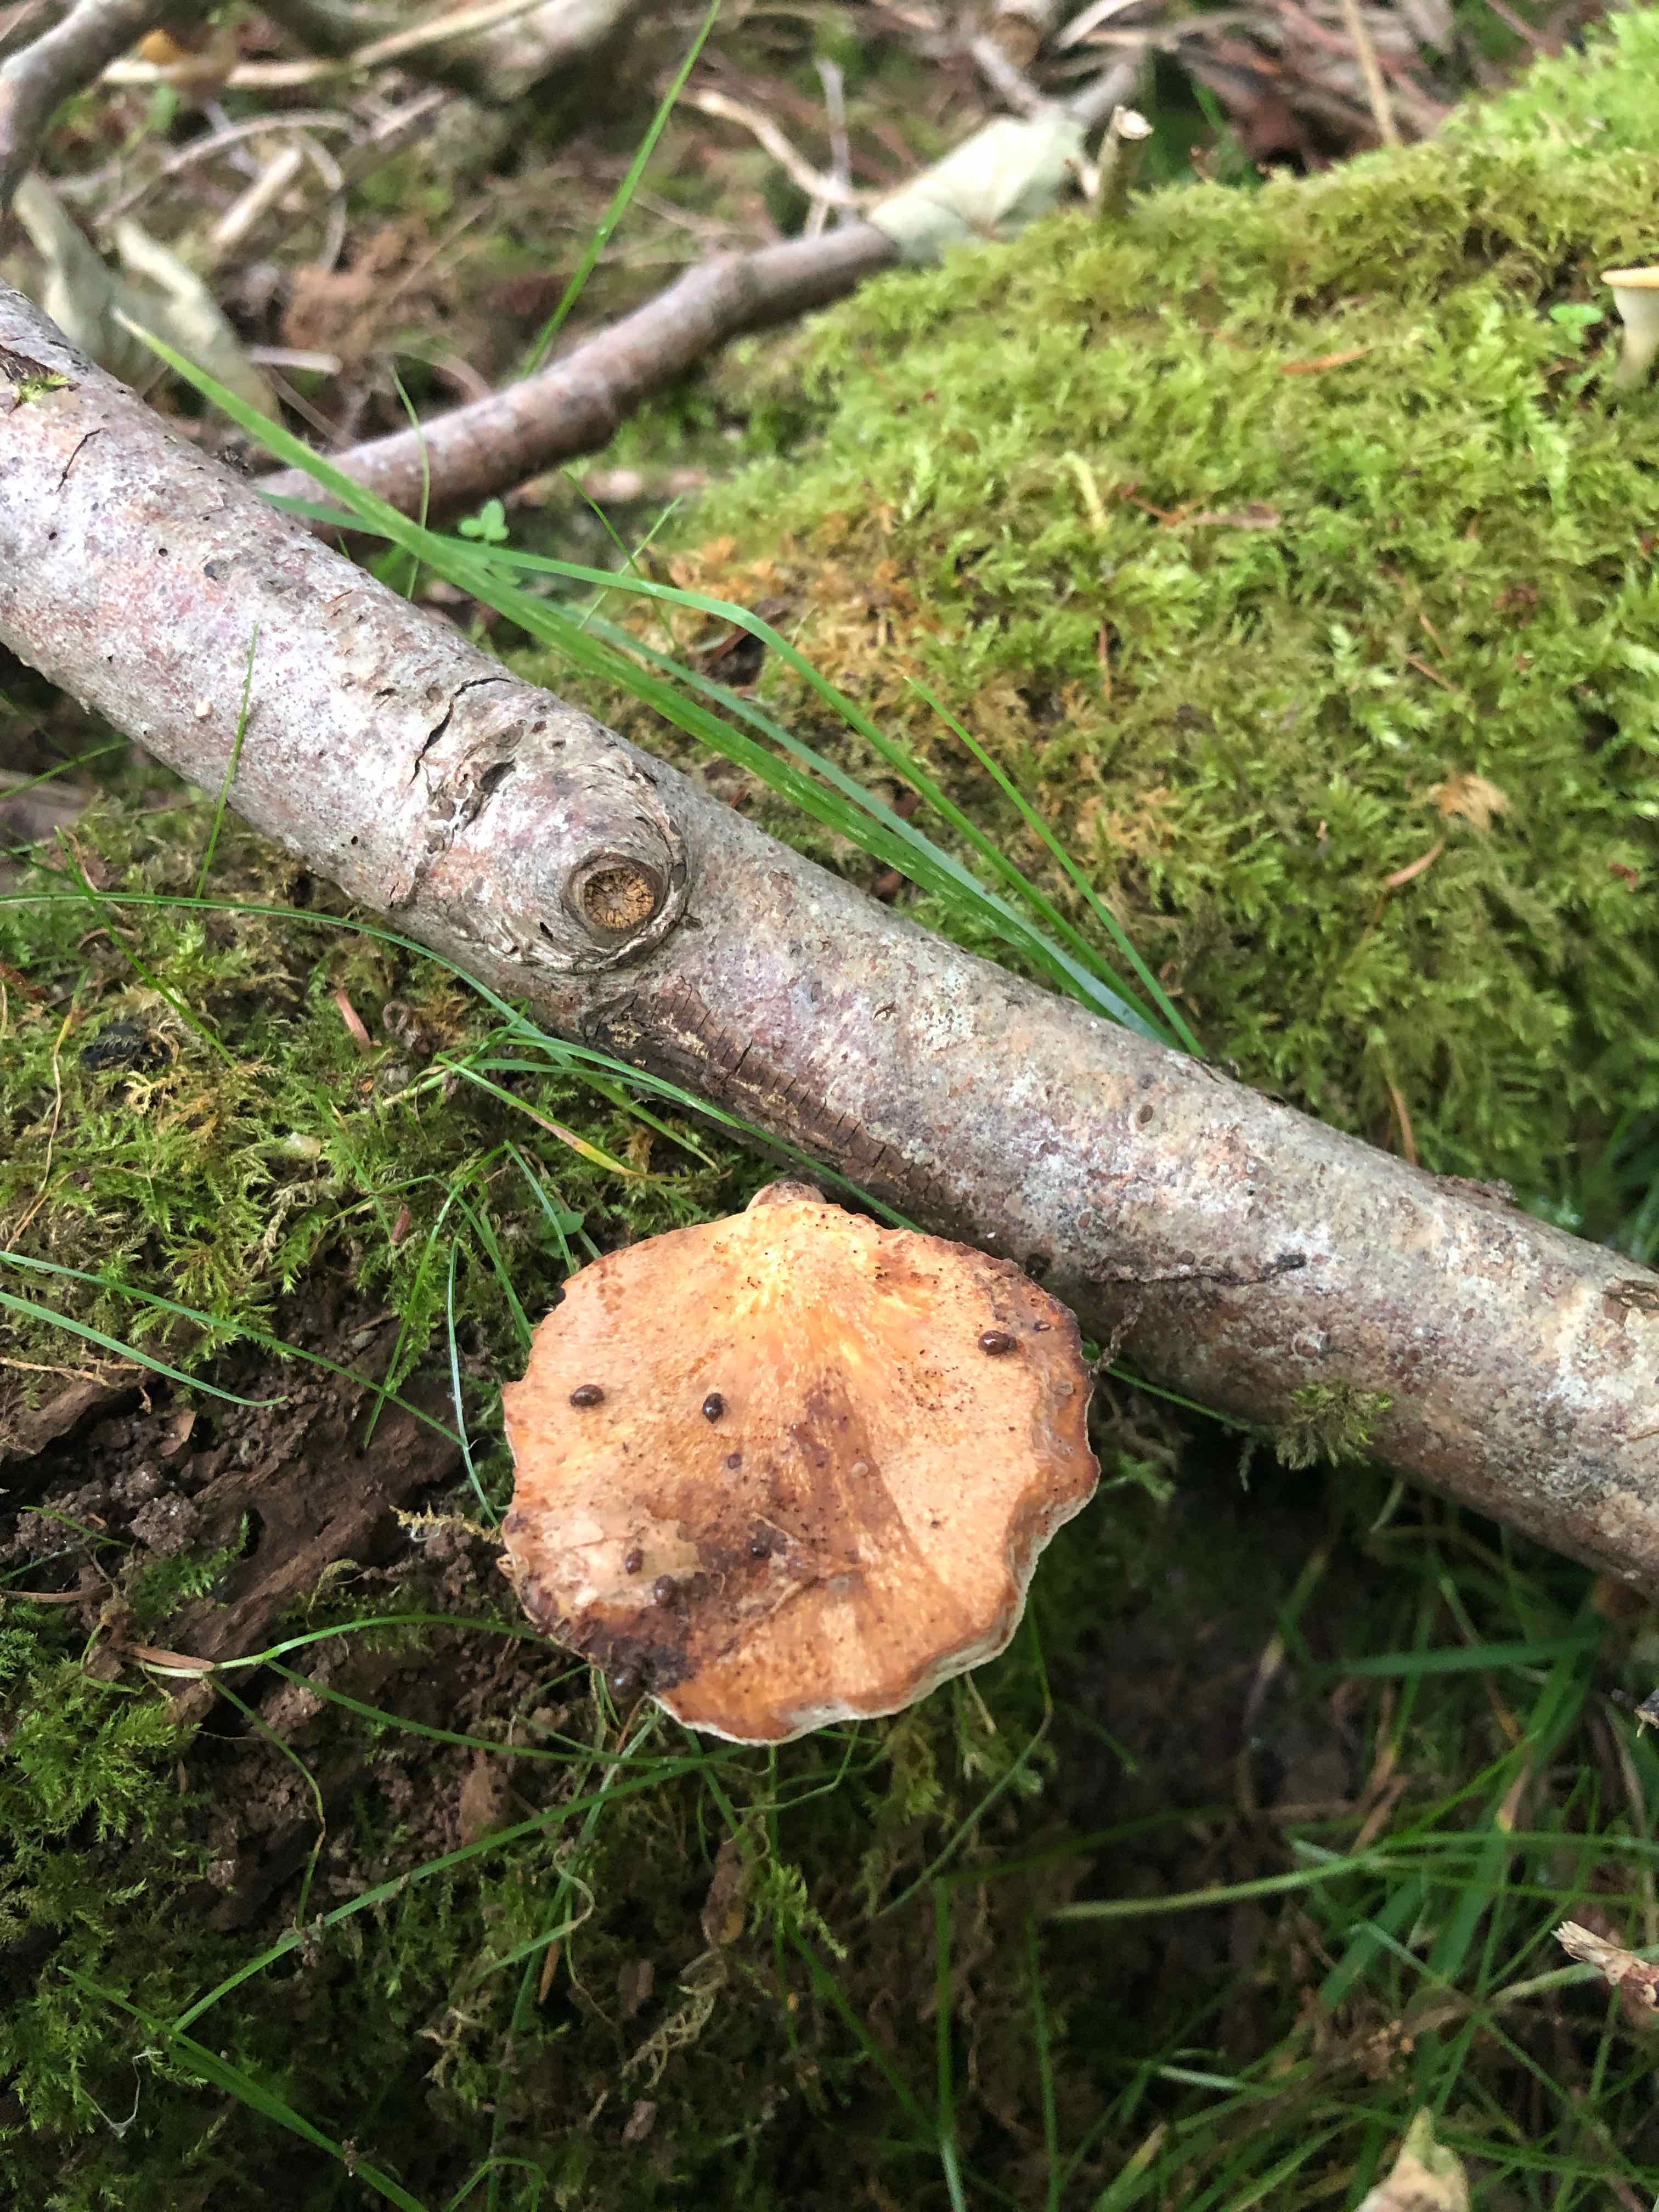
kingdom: Fungi
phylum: Basidiomycota
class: Agaricomycetes
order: Polyporales
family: Polyporaceae
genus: Cerioporus
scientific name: Cerioporus varius
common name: foranderlig stilkporesvamp
